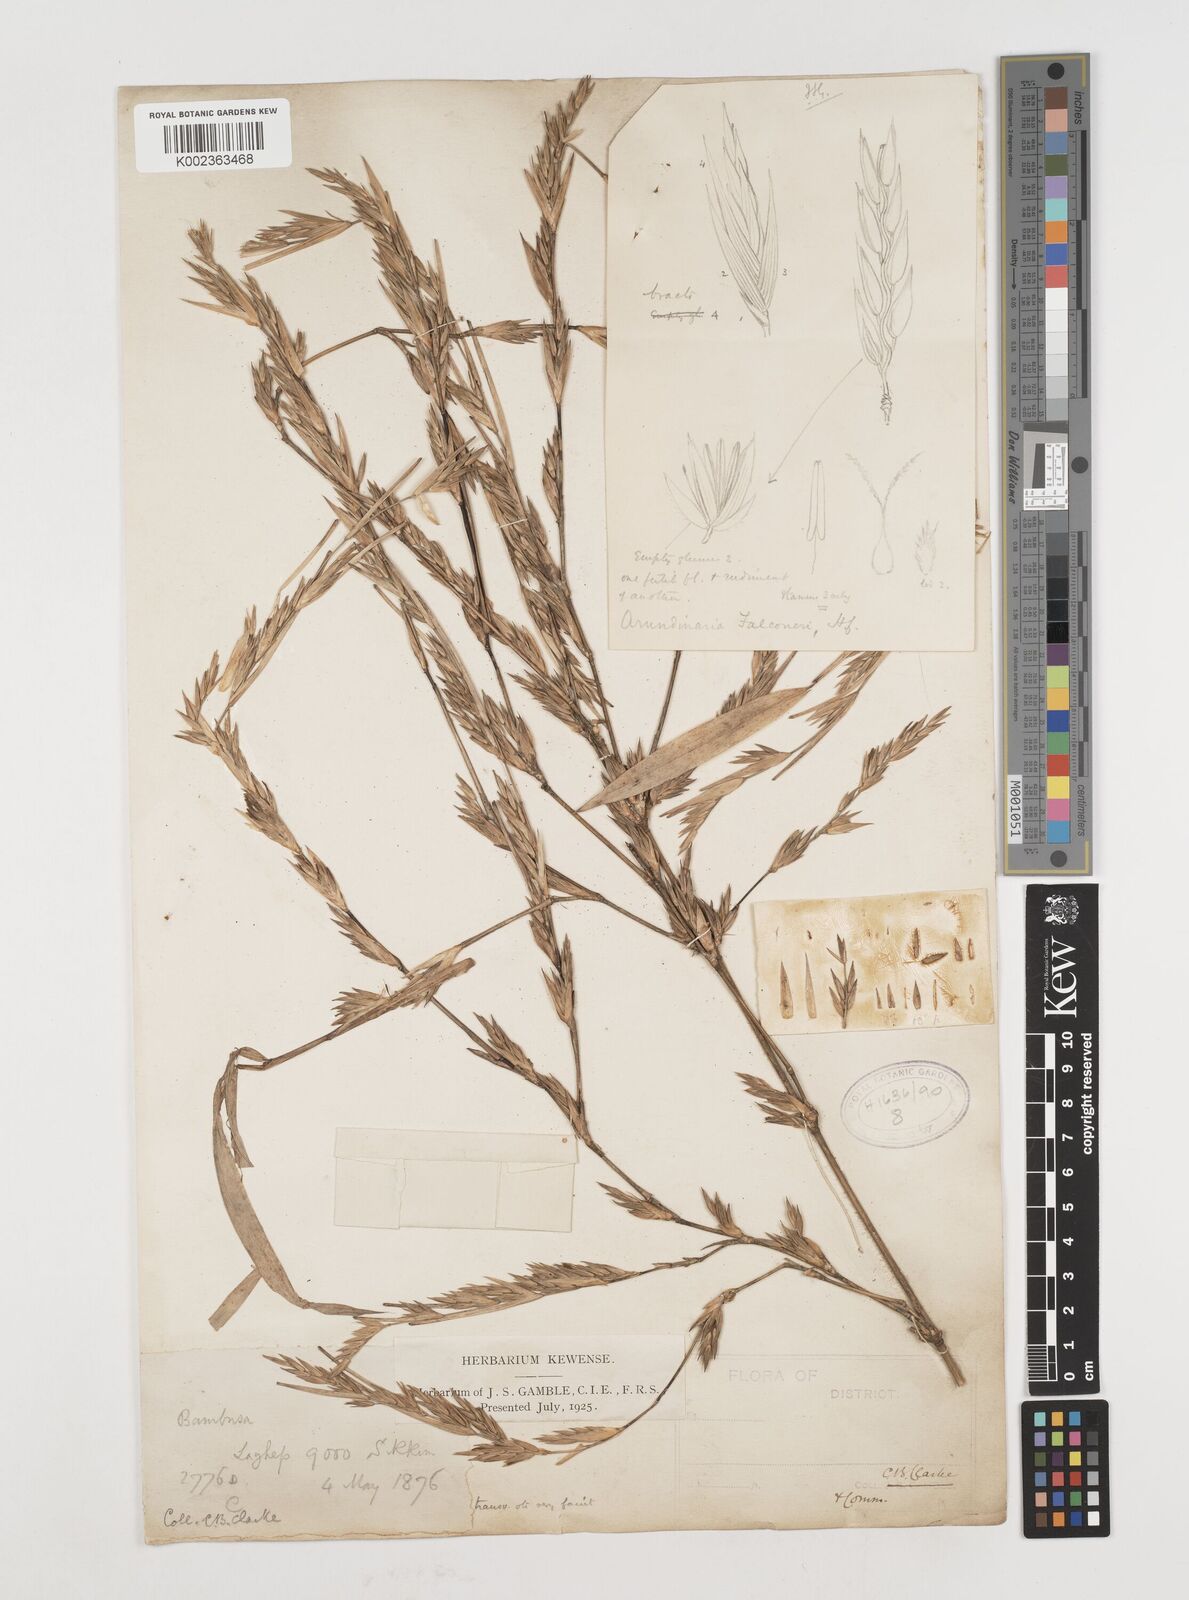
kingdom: Plantae
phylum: Tracheophyta
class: Liliopsida
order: Poales
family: Poaceae
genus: Himalayacalamus
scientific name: Himalayacalamus brevinodus
